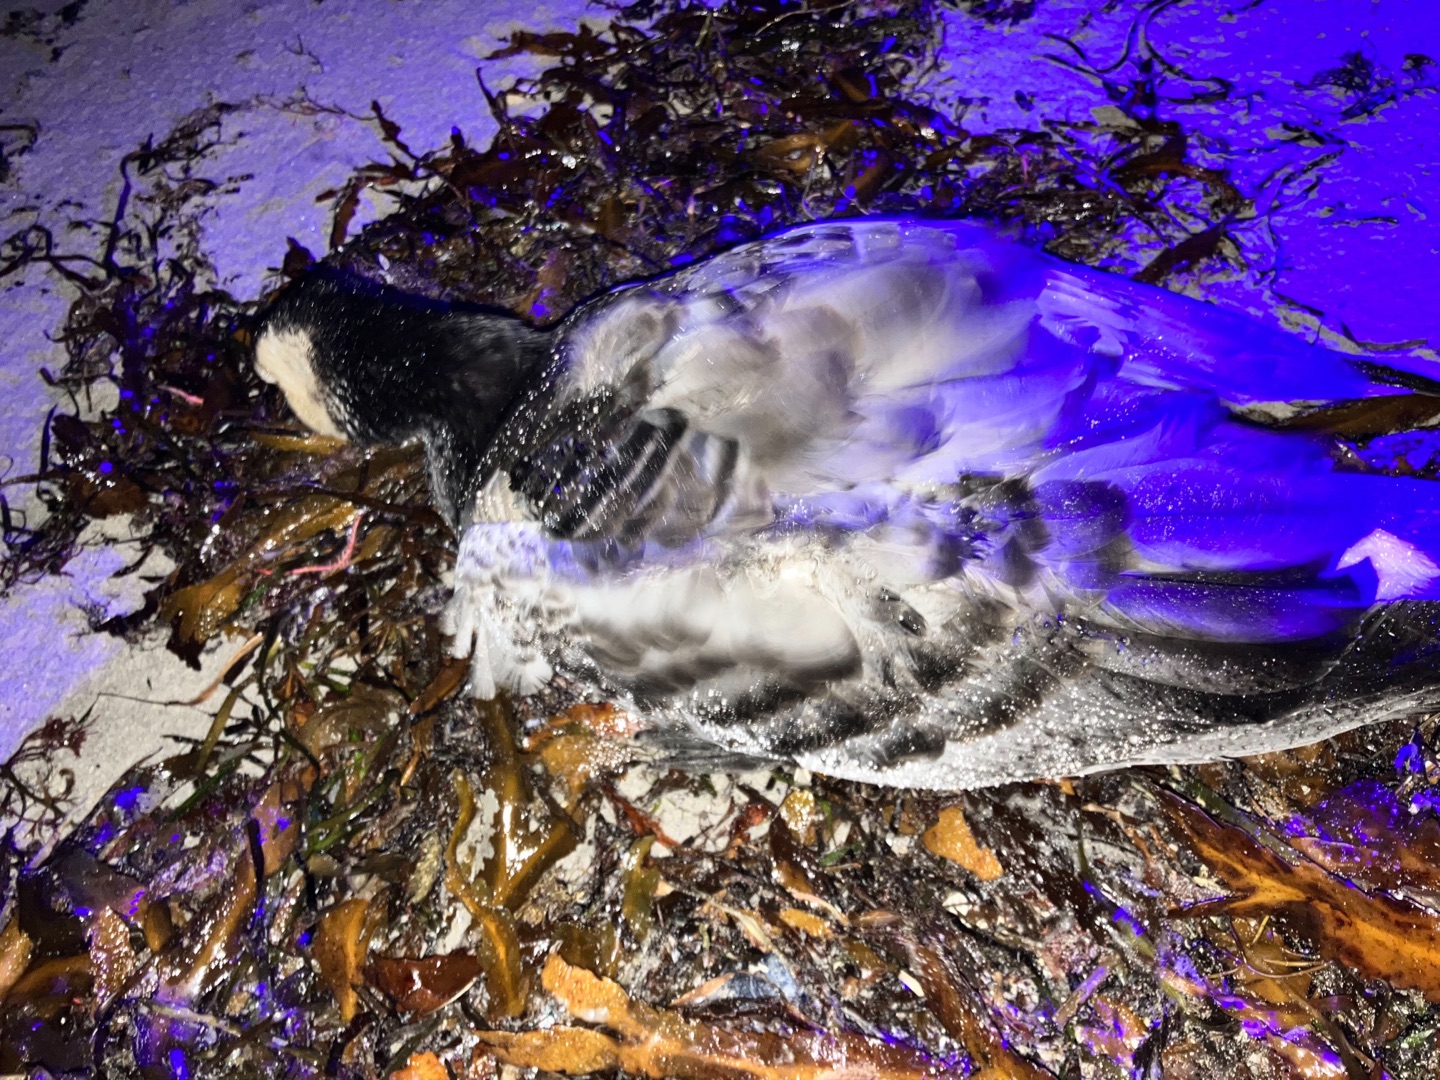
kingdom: Animalia
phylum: Chordata
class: Aves
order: Anseriformes
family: Anatidae
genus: Branta
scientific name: Branta leucopsis
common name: Bramgås
